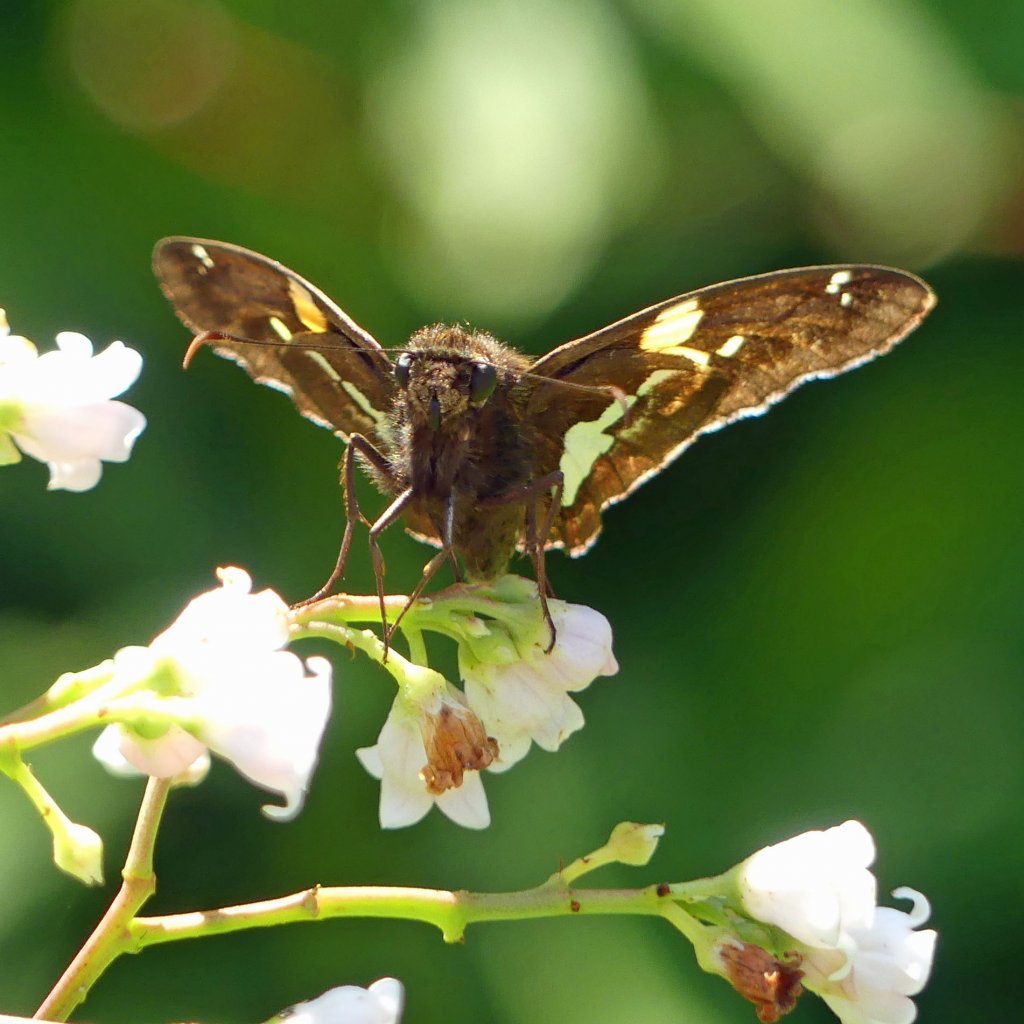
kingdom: Animalia
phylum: Arthropoda
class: Insecta
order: Lepidoptera
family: Hesperiidae
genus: Epargyreus
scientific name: Epargyreus clarus
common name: Silver-spotted Skipper
